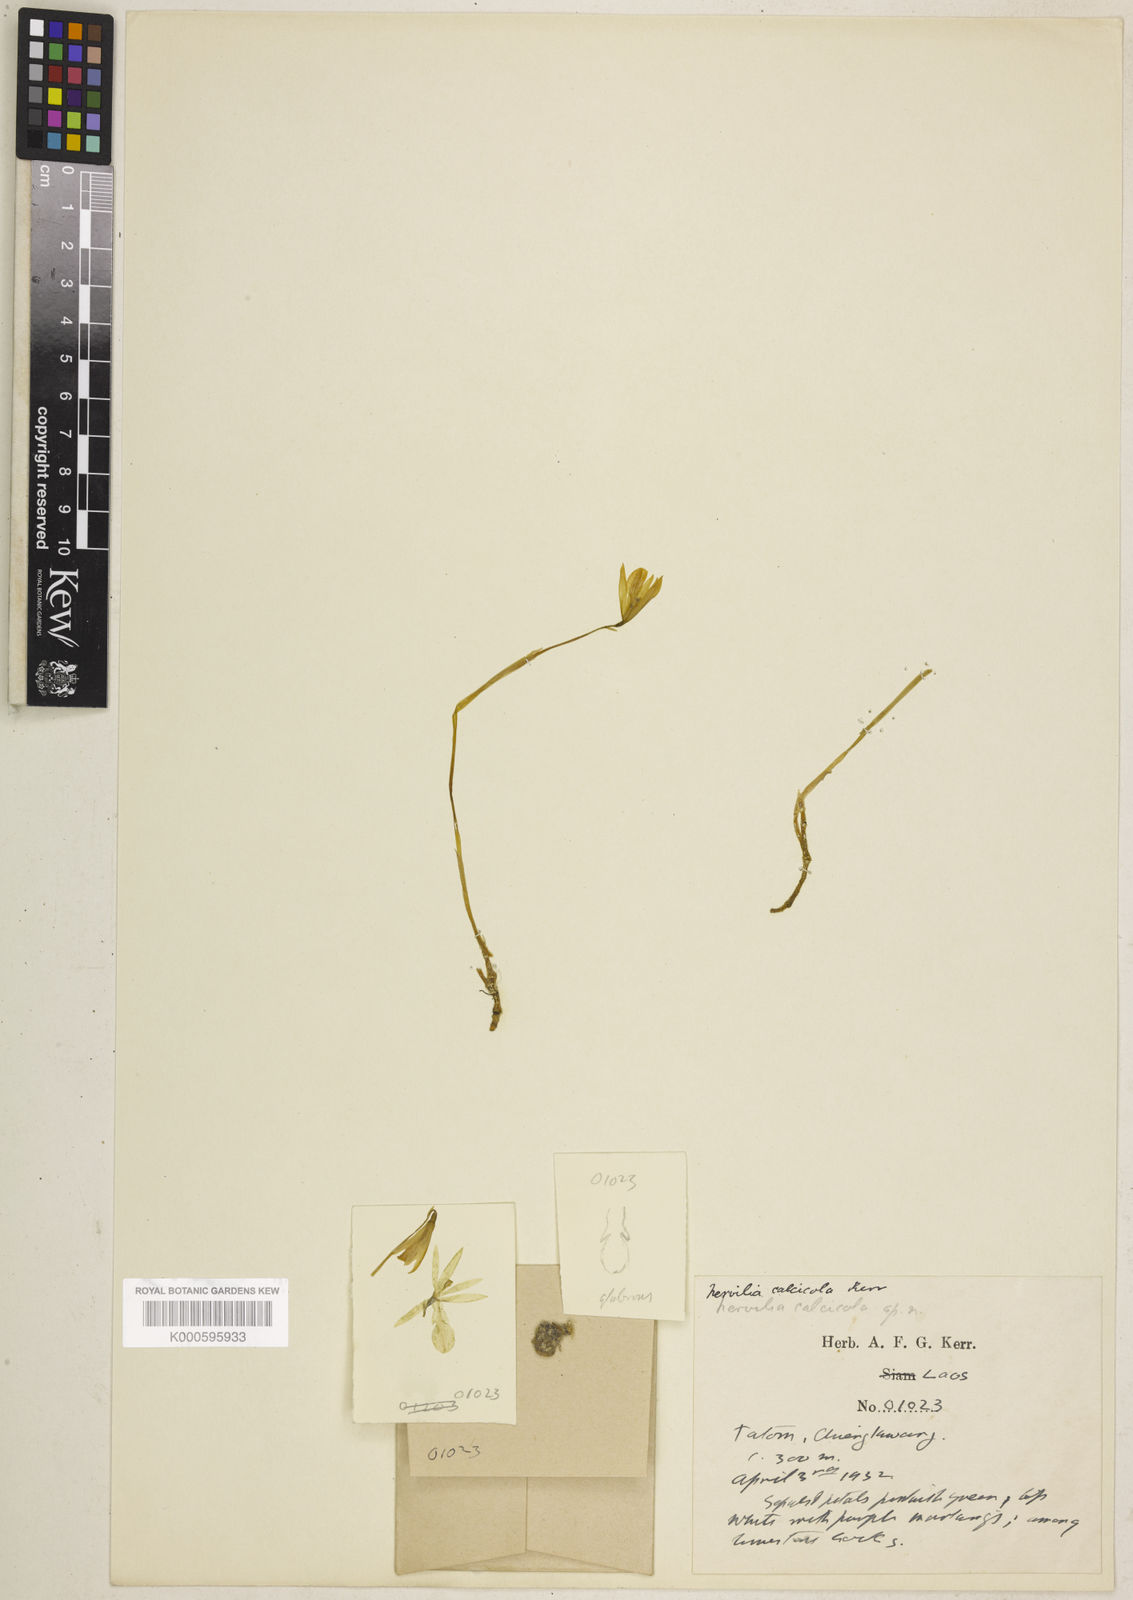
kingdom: Plantae
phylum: Tracheophyta
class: Liliopsida
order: Asparagales
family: Orchidaceae
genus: Nervilia
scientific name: Nervilia infundibulifolia
